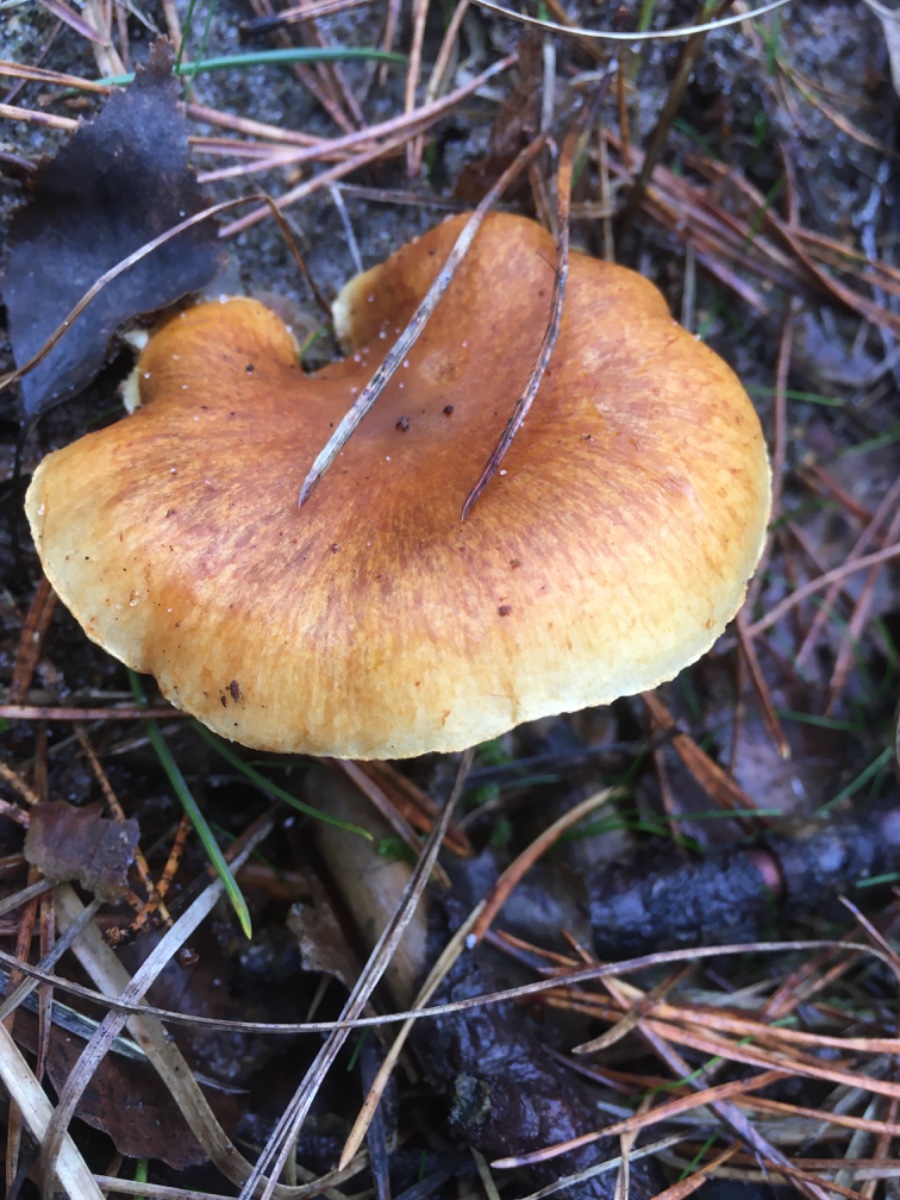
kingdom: Fungi
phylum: Basidiomycota
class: Agaricomycetes
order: Agaricales
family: Hymenogastraceae
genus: Gymnopilus
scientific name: Gymnopilus penetrans
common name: plettet flammehat
